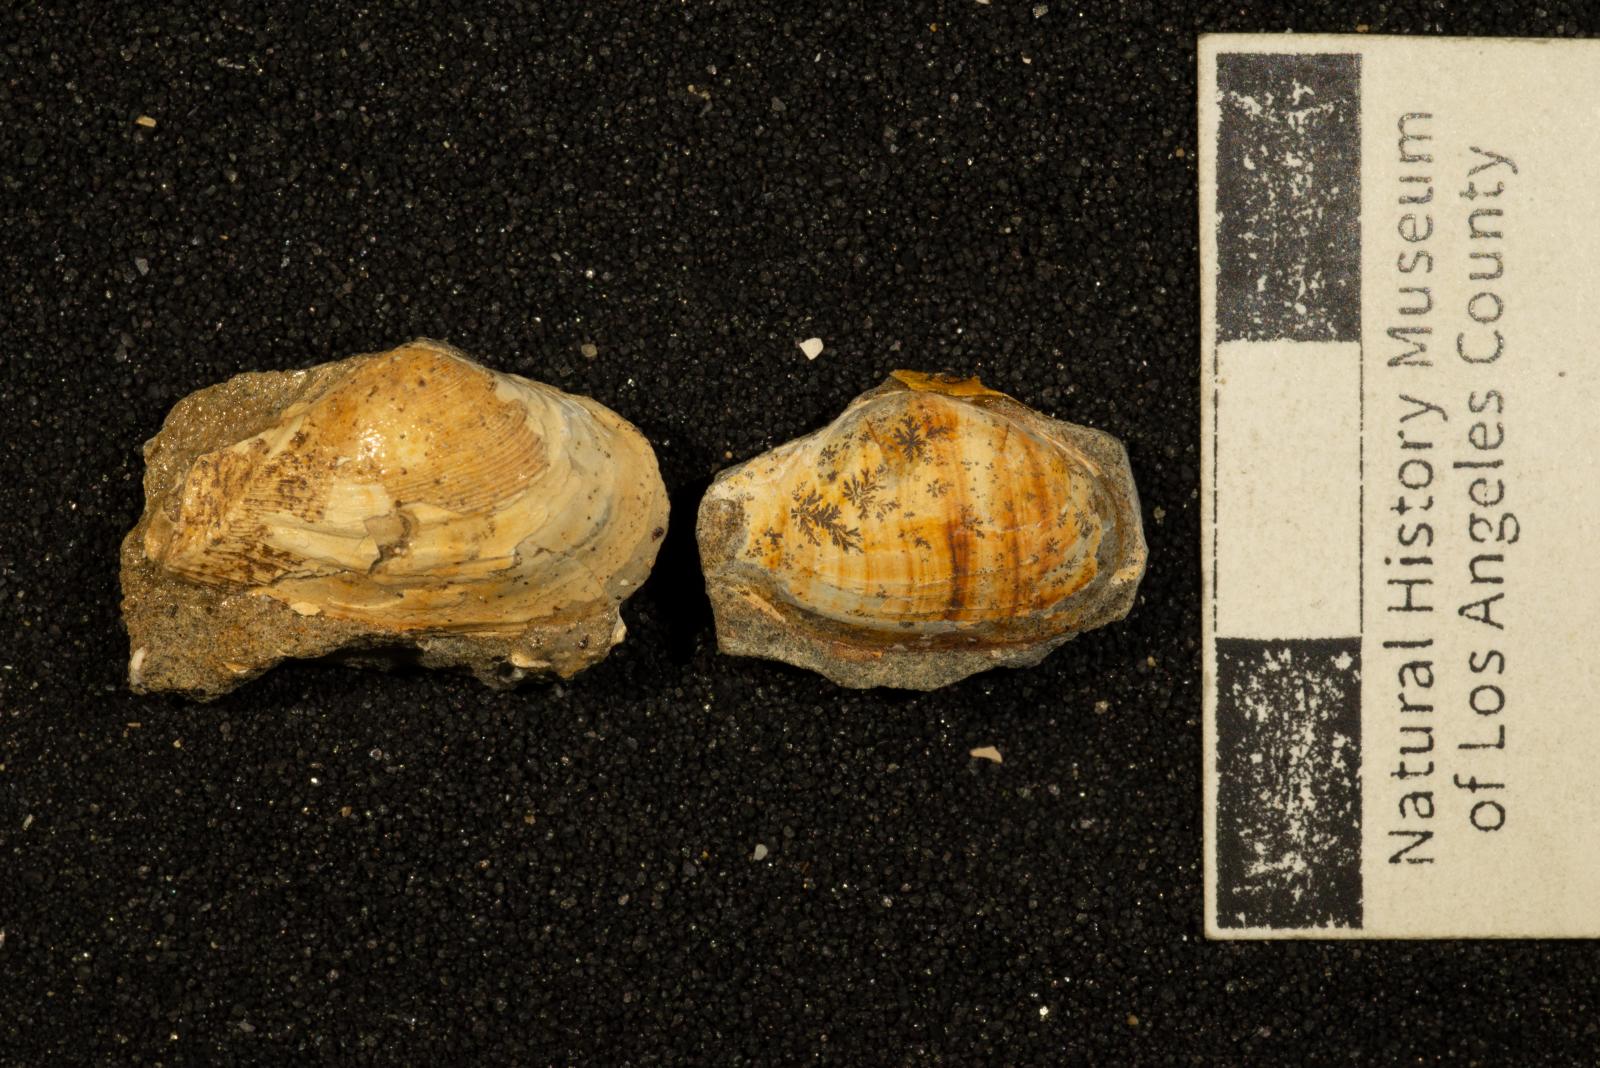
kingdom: Animalia
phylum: Mollusca
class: Bivalvia
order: Myida
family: Corbulidae
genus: Caryocorbula
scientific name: Caryocorbula lomana
